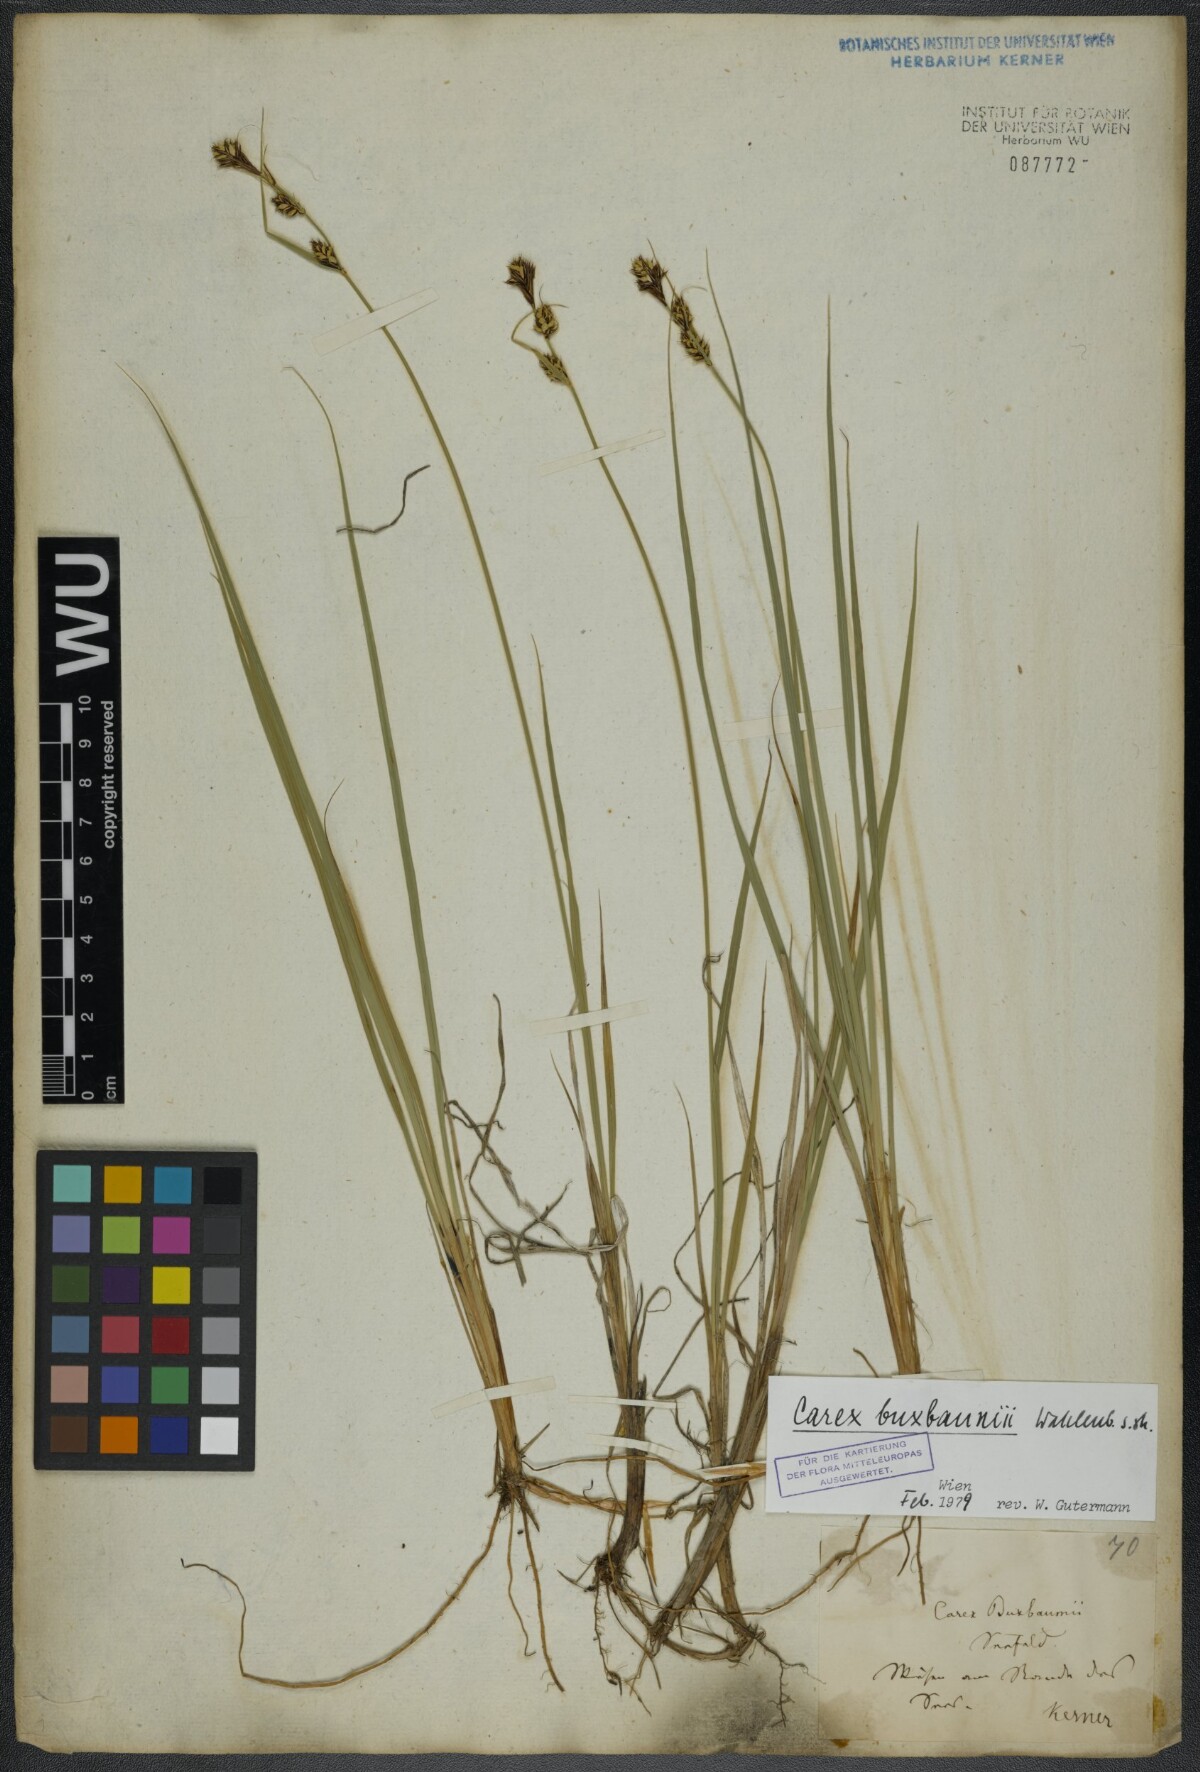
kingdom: Plantae
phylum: Tracheophyta
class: Liliopsida
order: Poales
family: Cyperaceae
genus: Carex
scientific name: Carex buxbaumii
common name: Club sedge
